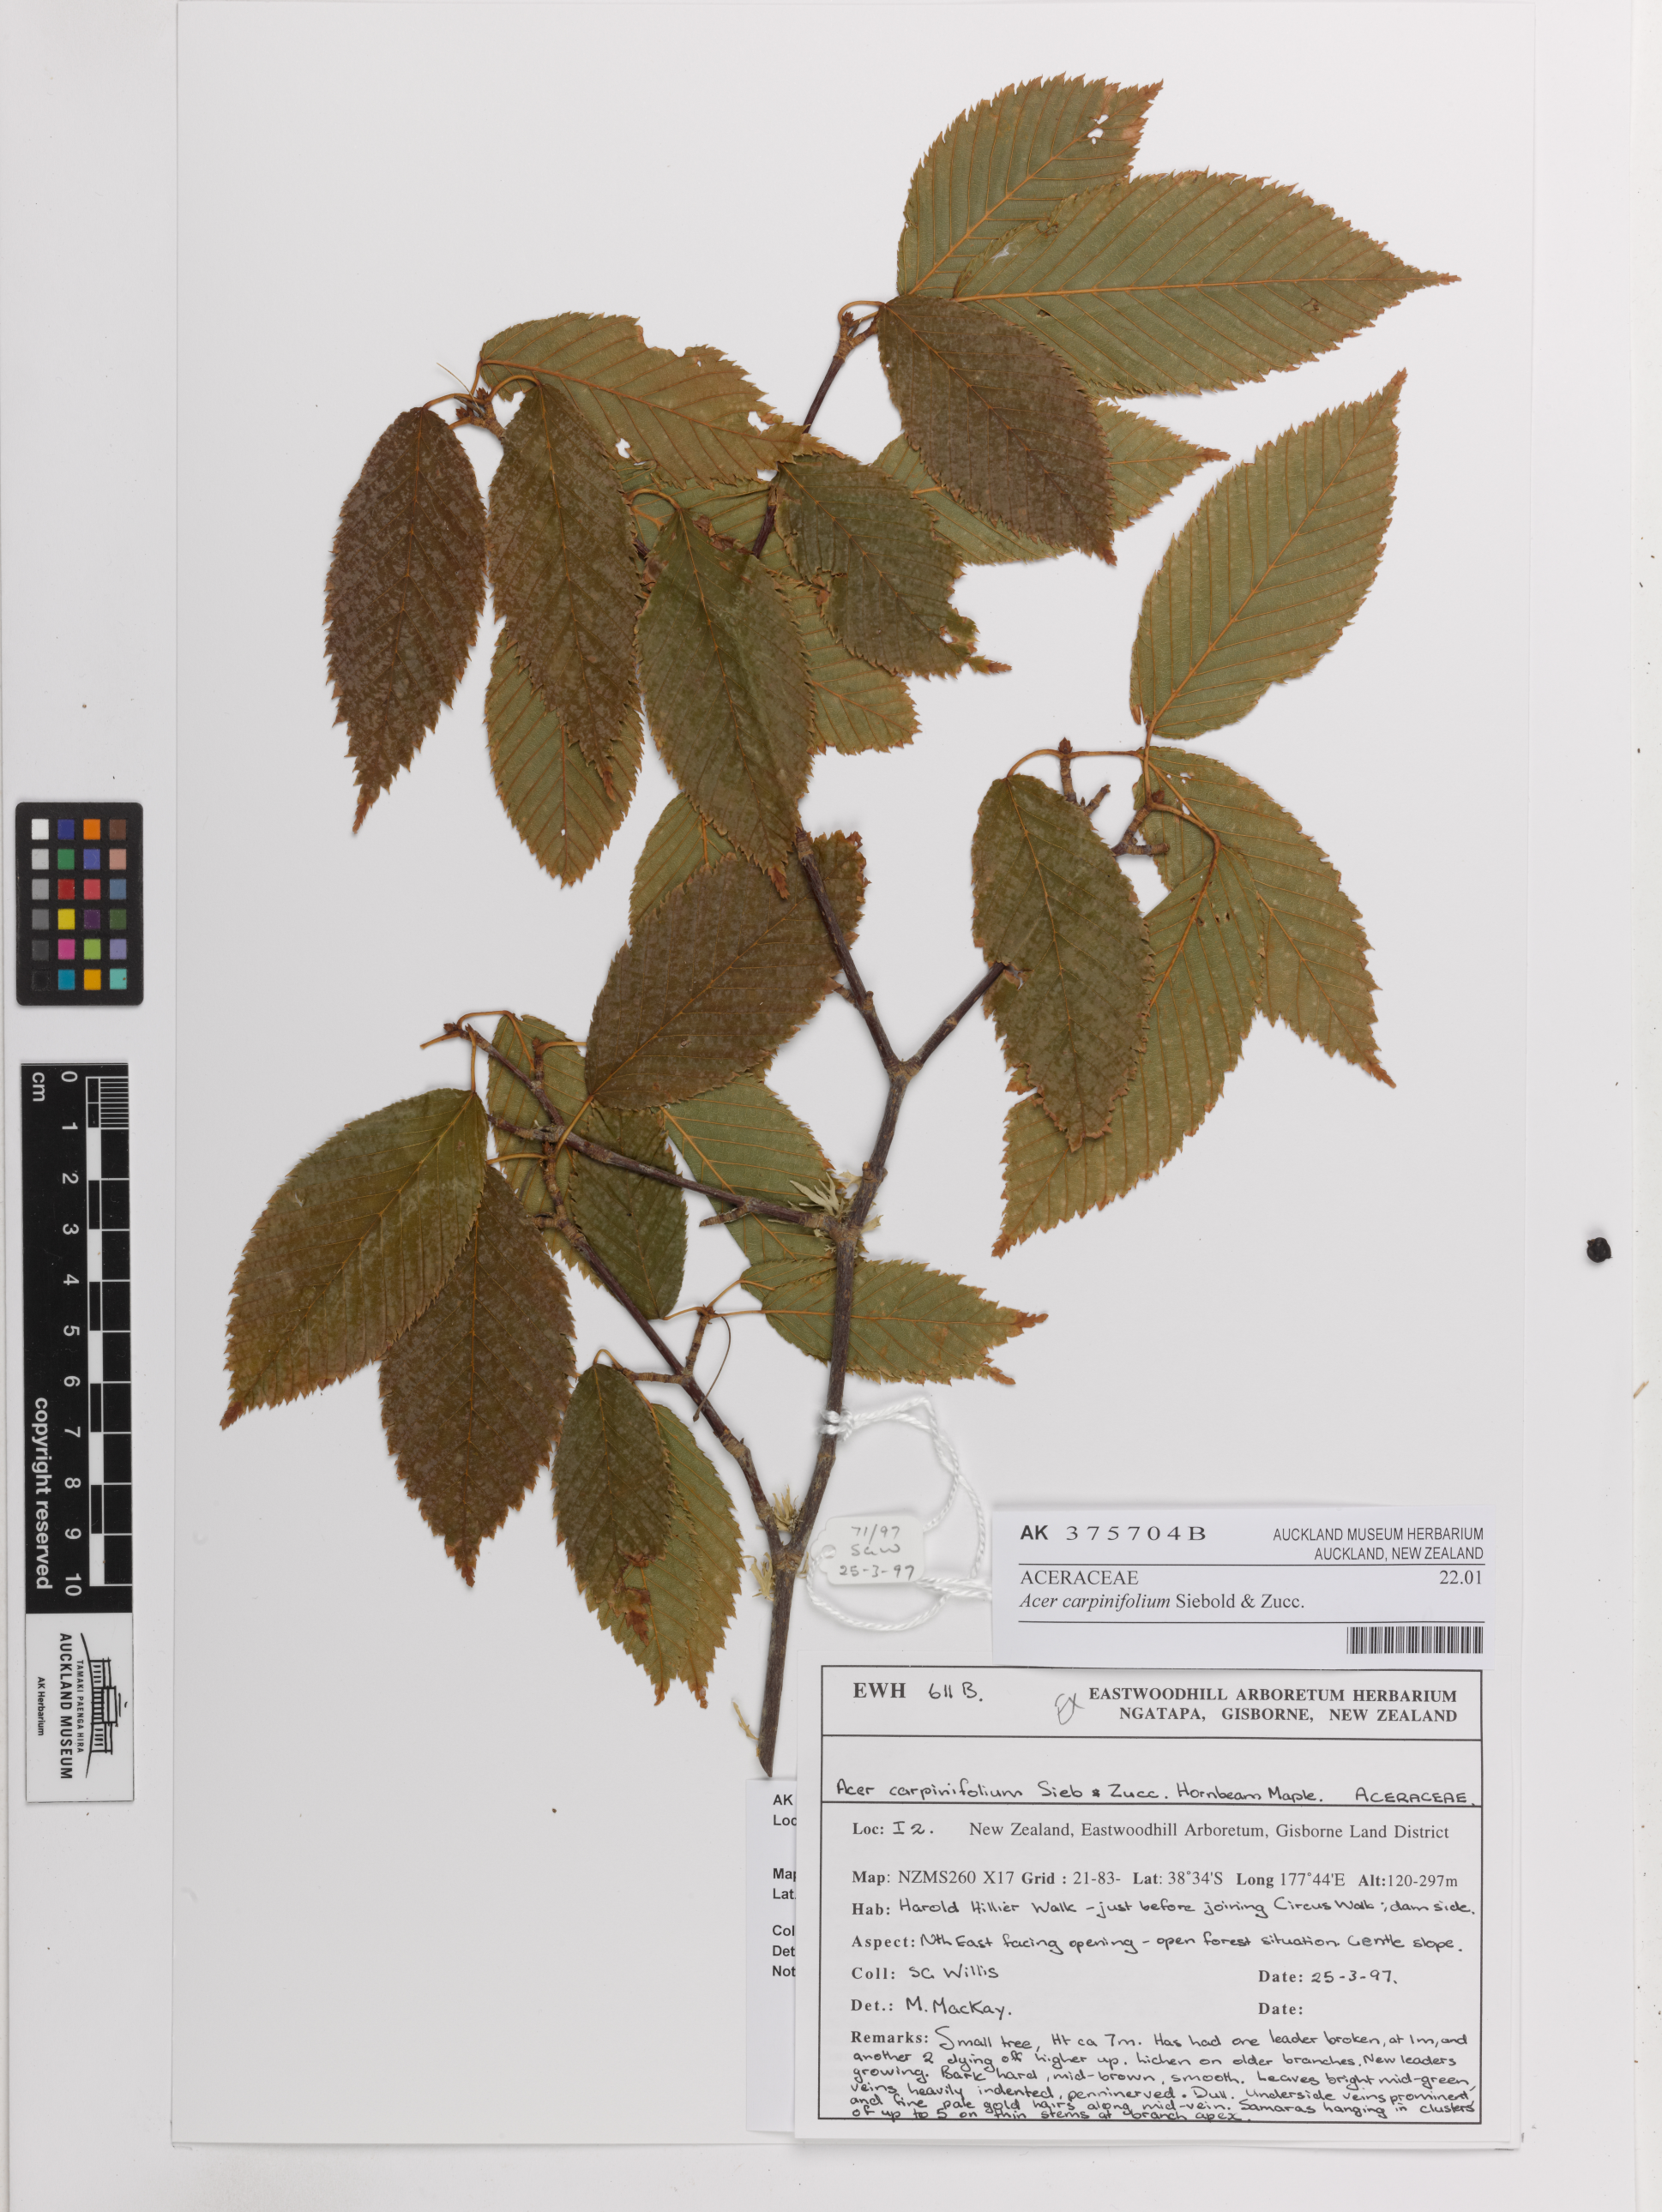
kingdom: Plantae
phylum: Tracheophyta
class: Magnoliopsida
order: Sapindales
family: Sapindaceae
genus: Acer
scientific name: Acer carpinifolium
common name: Hornbeam maple
